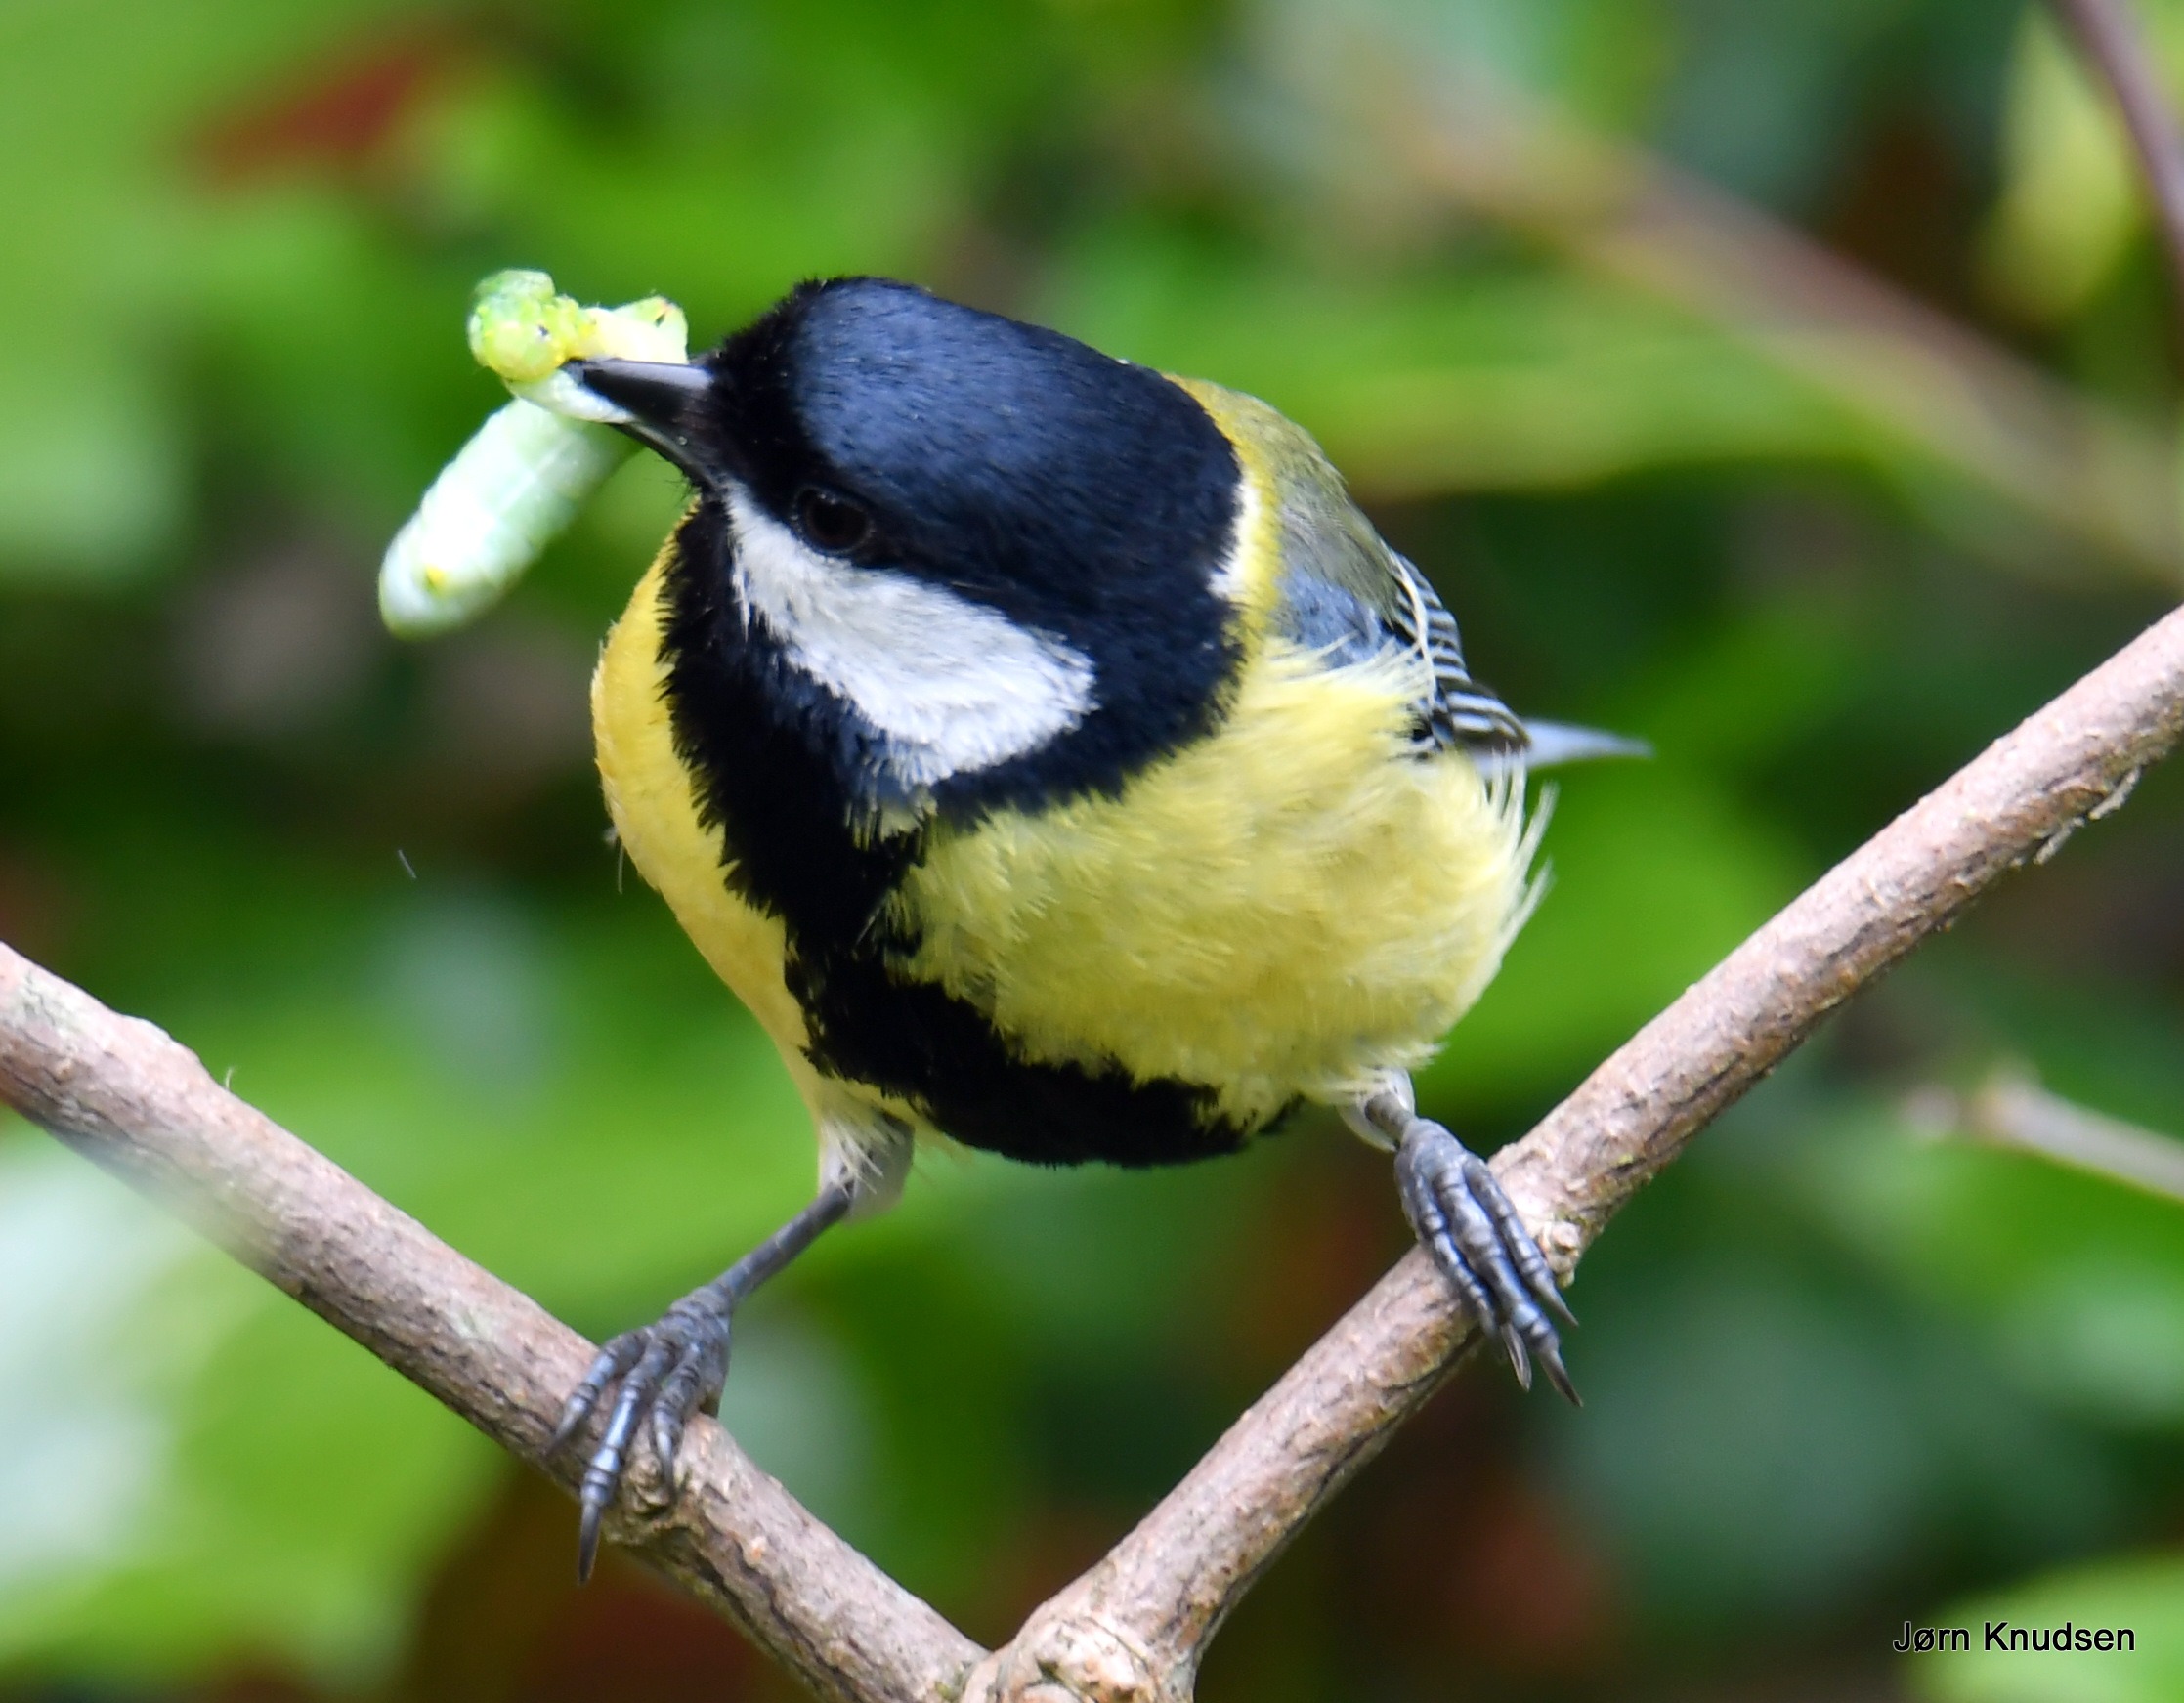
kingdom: Animalia
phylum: Chordata
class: Aves
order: Passeriformes
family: Paridae
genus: Parus
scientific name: Parus major
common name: Musvit
